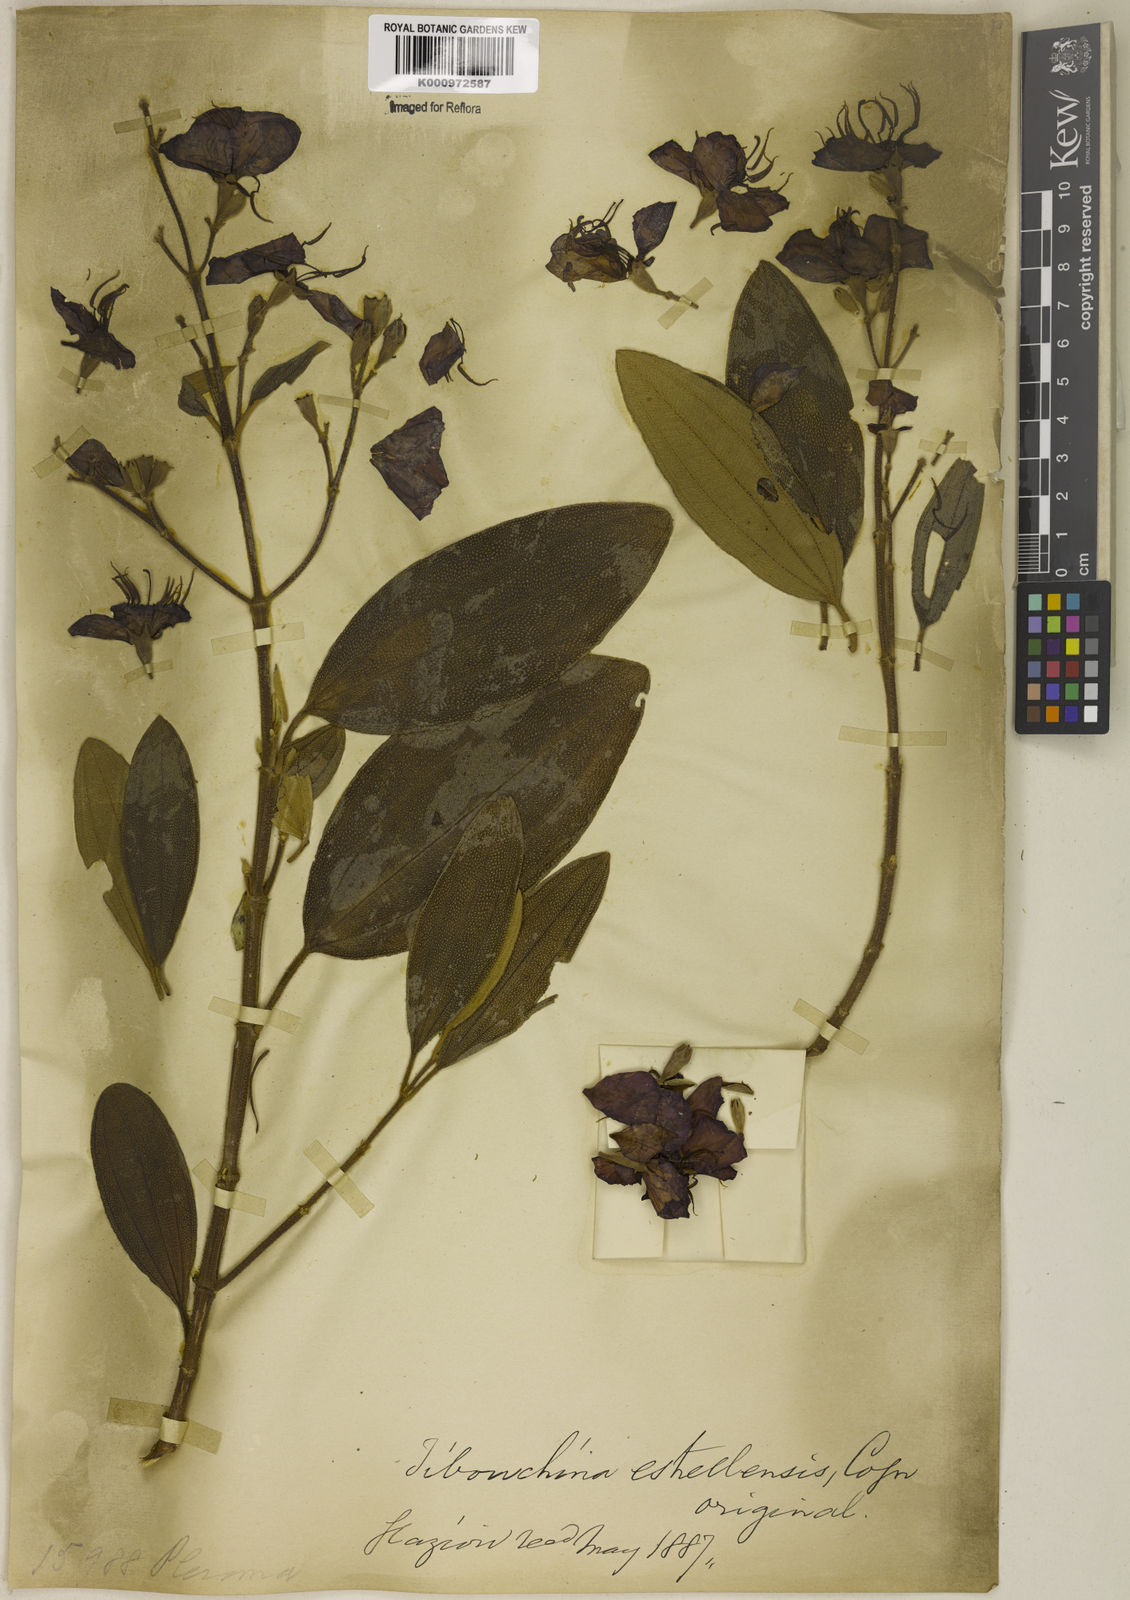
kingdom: Plantae
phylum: Tracheophyta
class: Magnoliopsida
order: Myrtales
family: Melastomataceae
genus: Pleroma
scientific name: Pleroma estrellense
